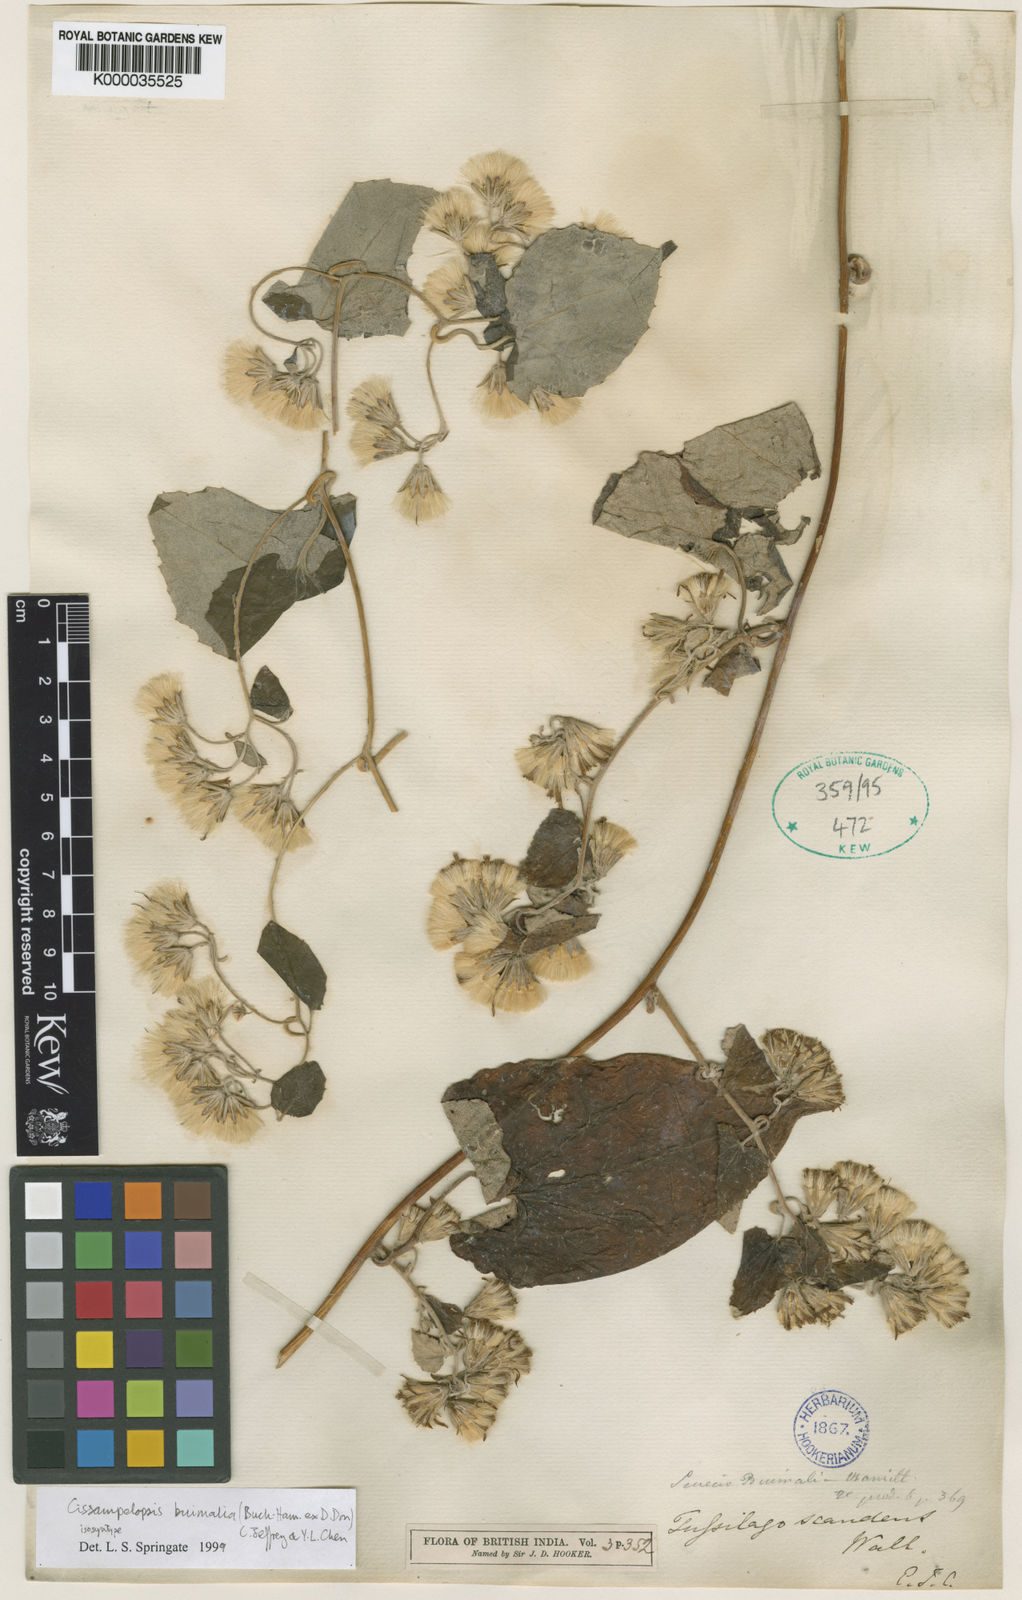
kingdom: Plantae
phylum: Tracheophyta
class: Magnoliopsida
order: Asterales
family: Asteraceae
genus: Cissampelopsis
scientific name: Cissampelopsis buimalia
